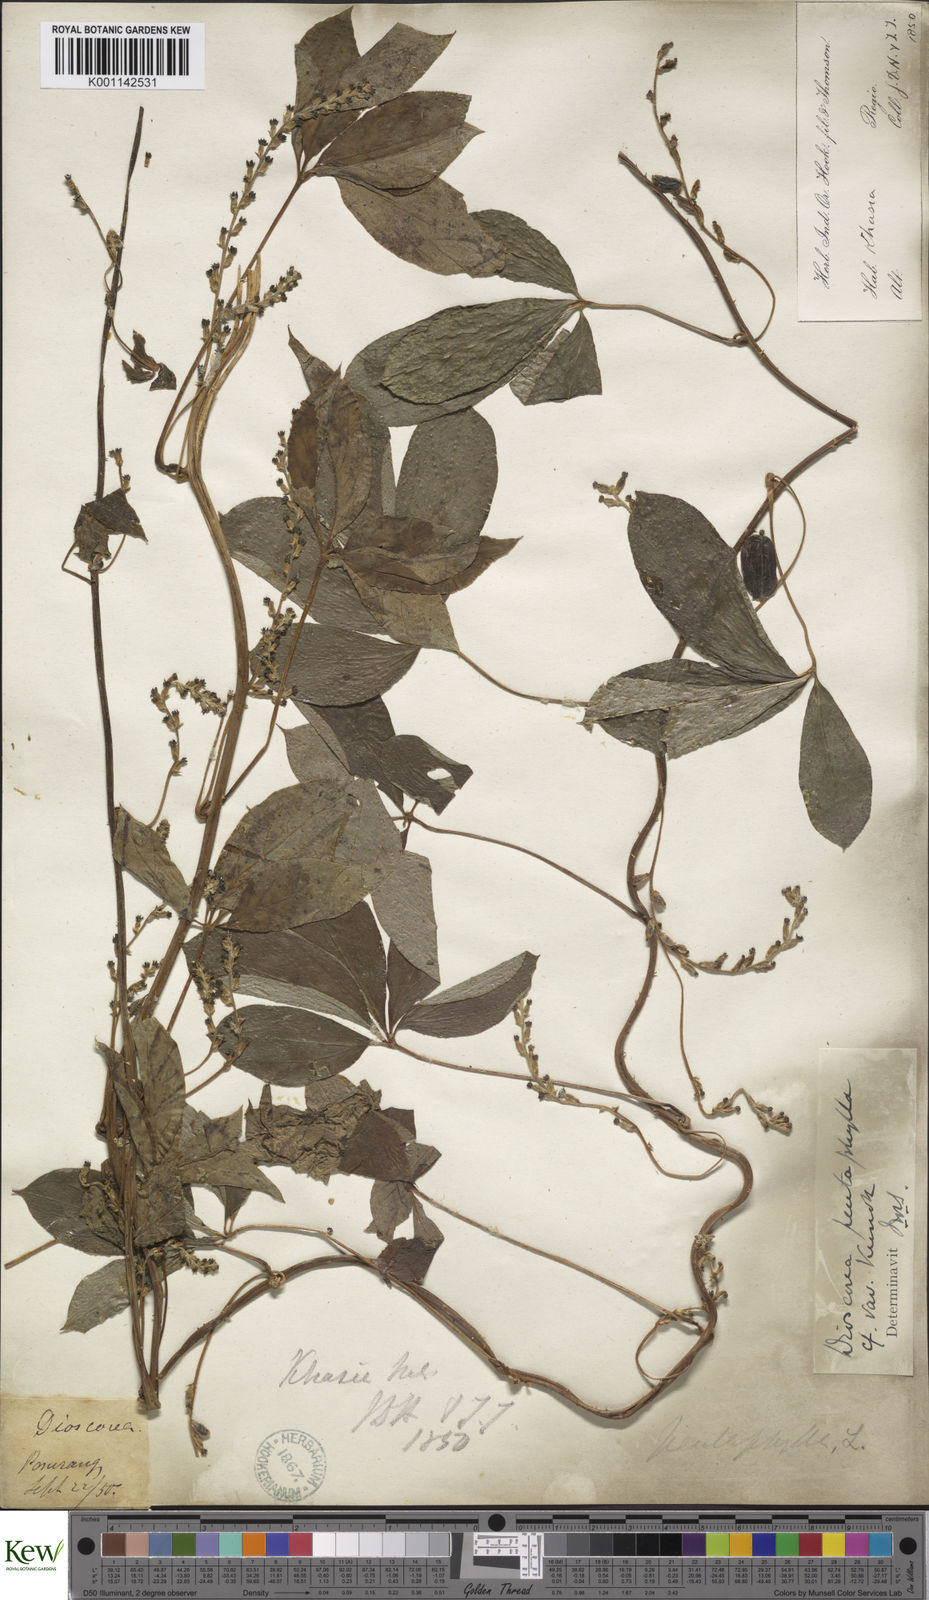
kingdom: Plantae
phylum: Tracheophyta
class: Liliopsida
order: Dioscoreales
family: Dioscoreaceae
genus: Dioscorea
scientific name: Dioscorea pentaphylla
